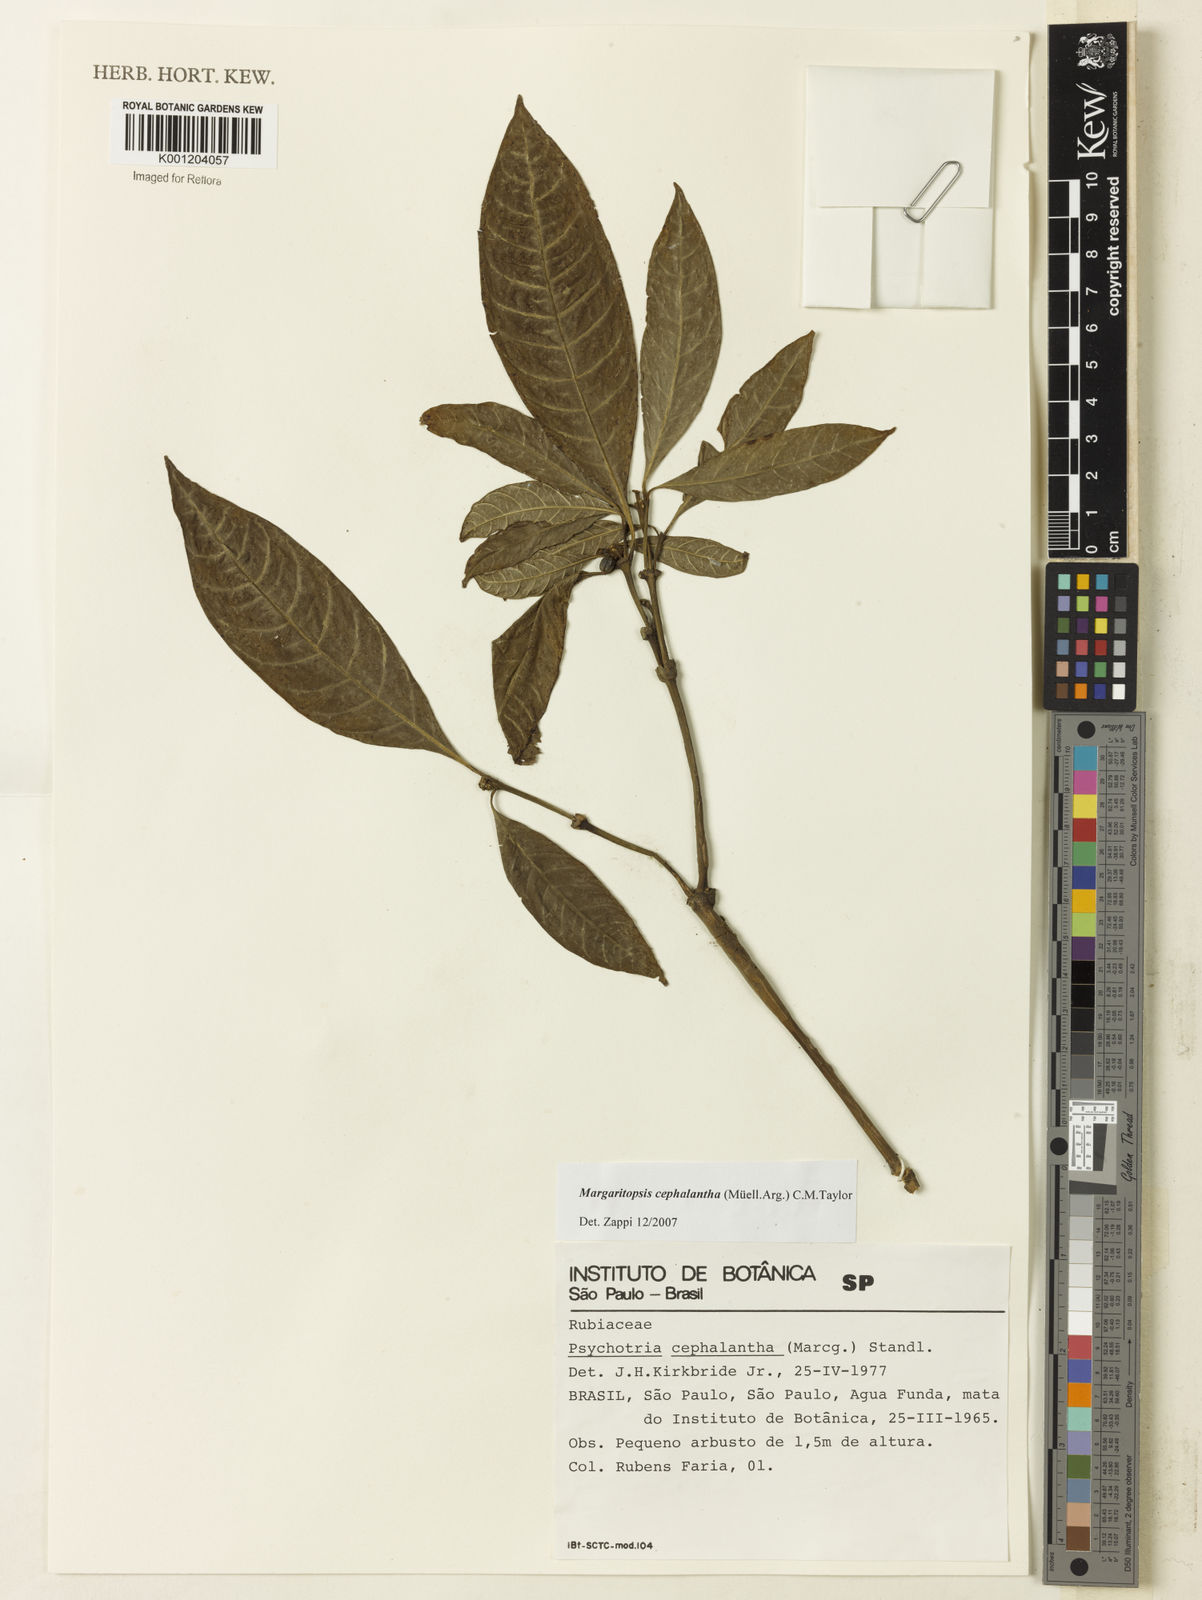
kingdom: Plantae
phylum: Tracheophyta
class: Magnoliopsida
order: Gentianales
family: Rubiaceae
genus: Eumachia
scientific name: Eumachia
